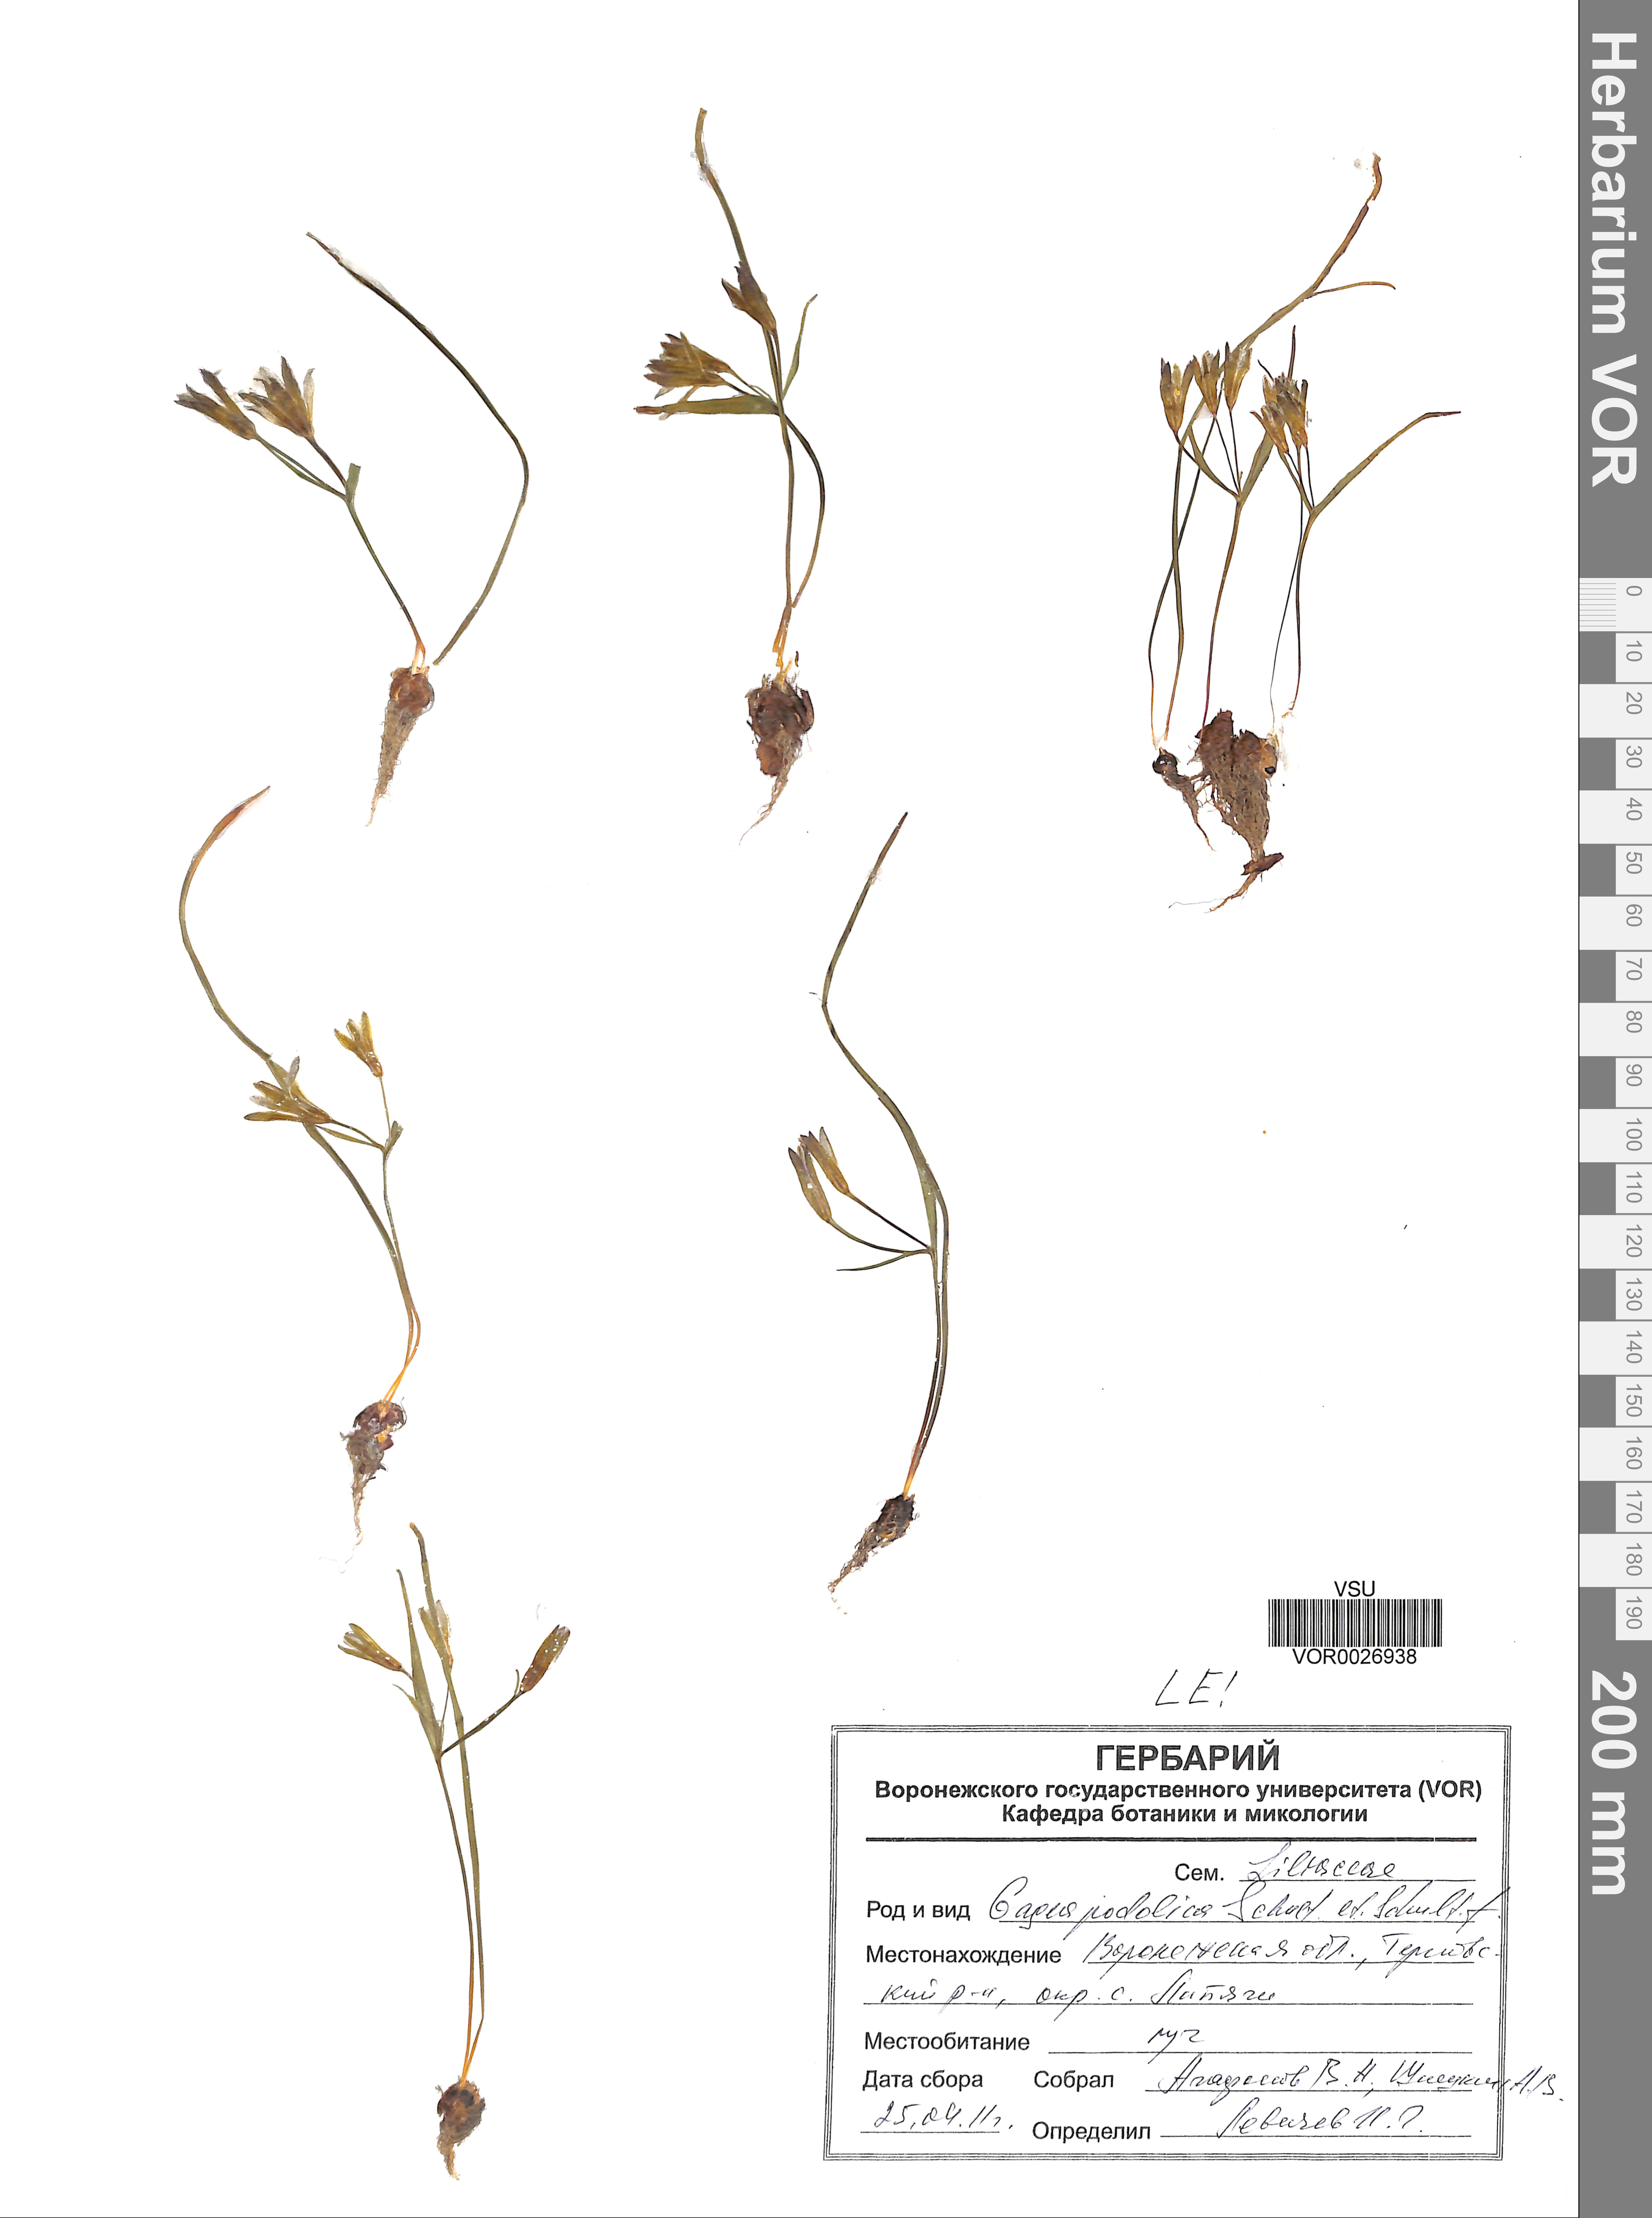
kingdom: Plantae
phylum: Tracheophyta
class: Liliopsida
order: Liliales
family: Liliaceae
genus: Gagea
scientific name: Gagea podolica
